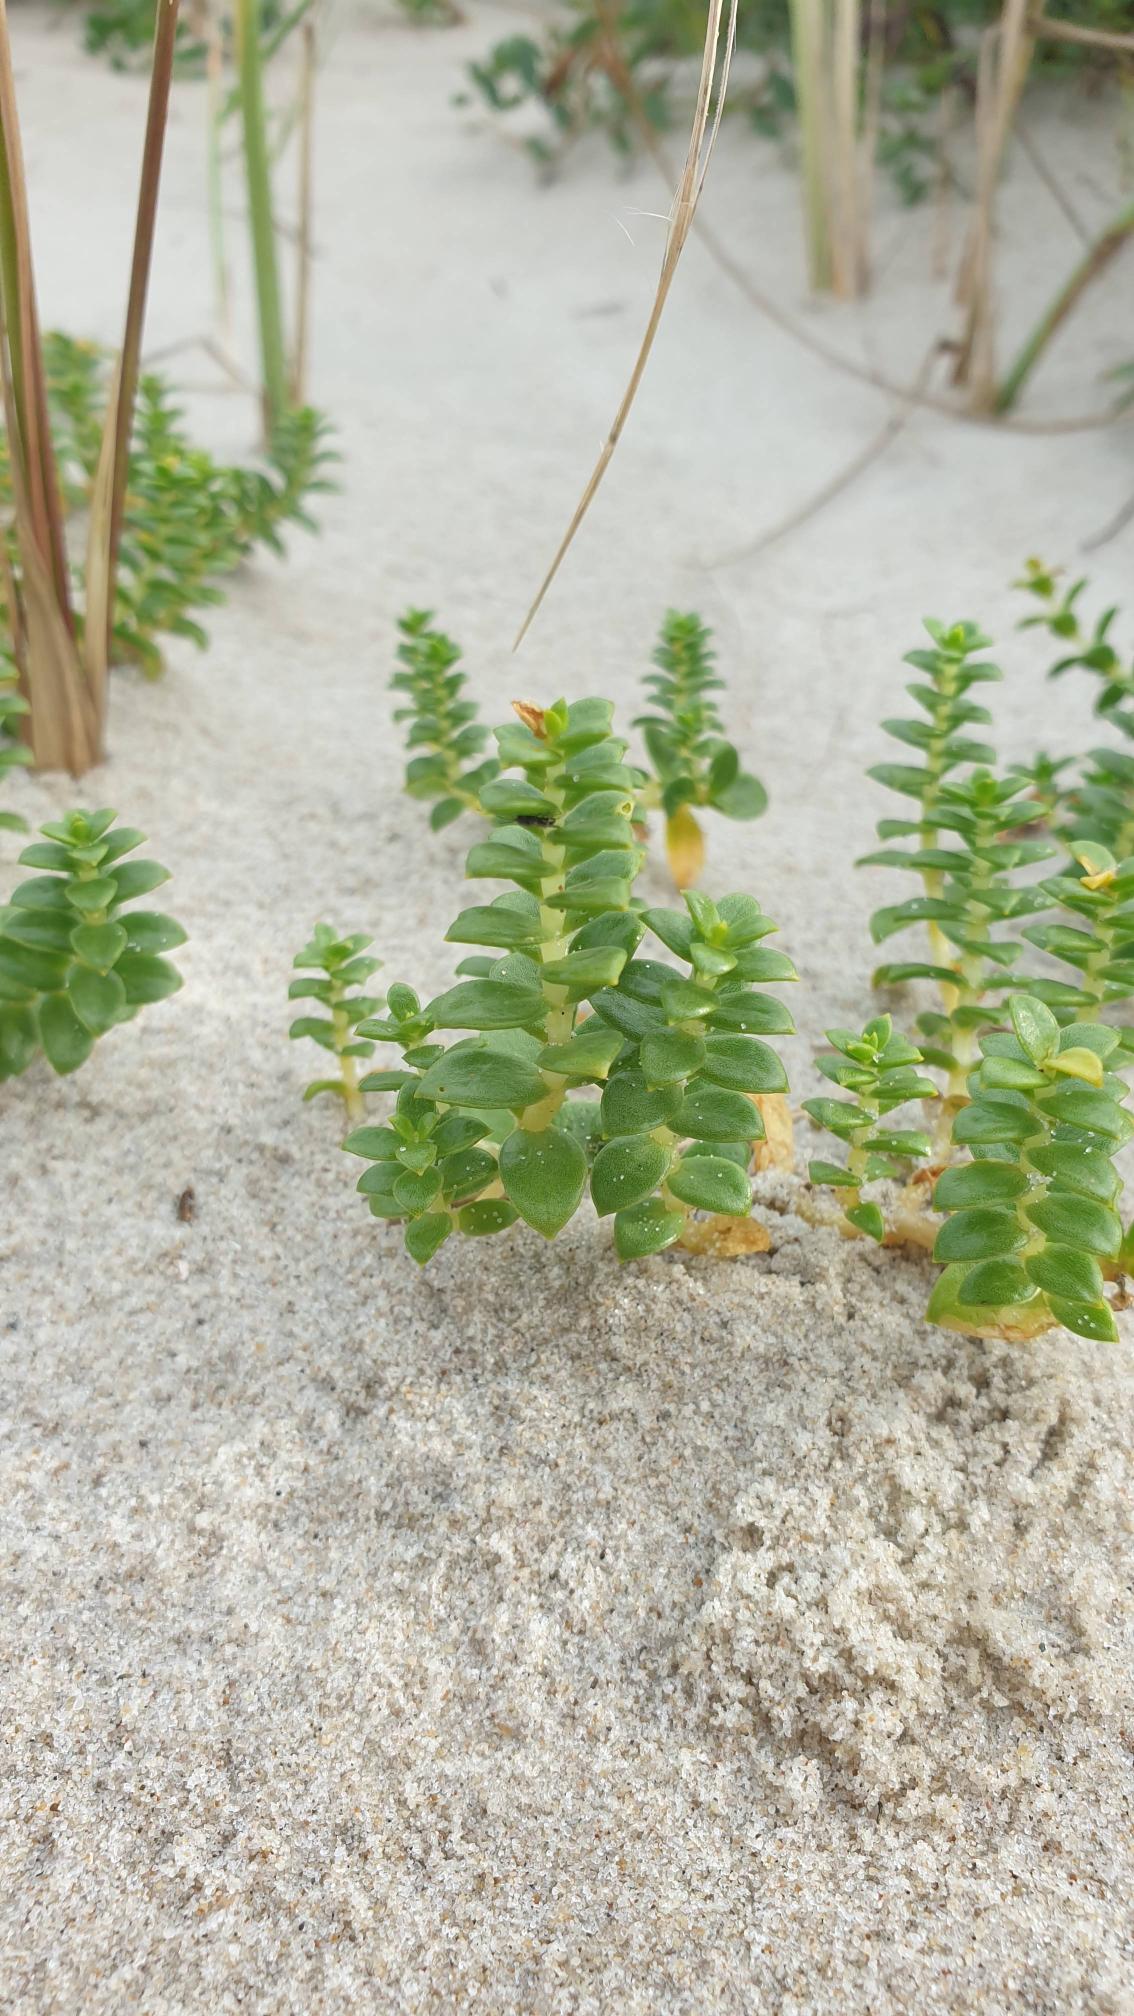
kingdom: Plantae
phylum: Tracheophyta
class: Magnoliopsida
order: Caryophyllales
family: Caryophyllaceae
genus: Honckenya
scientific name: Honckenya peploides
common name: Strandarve
